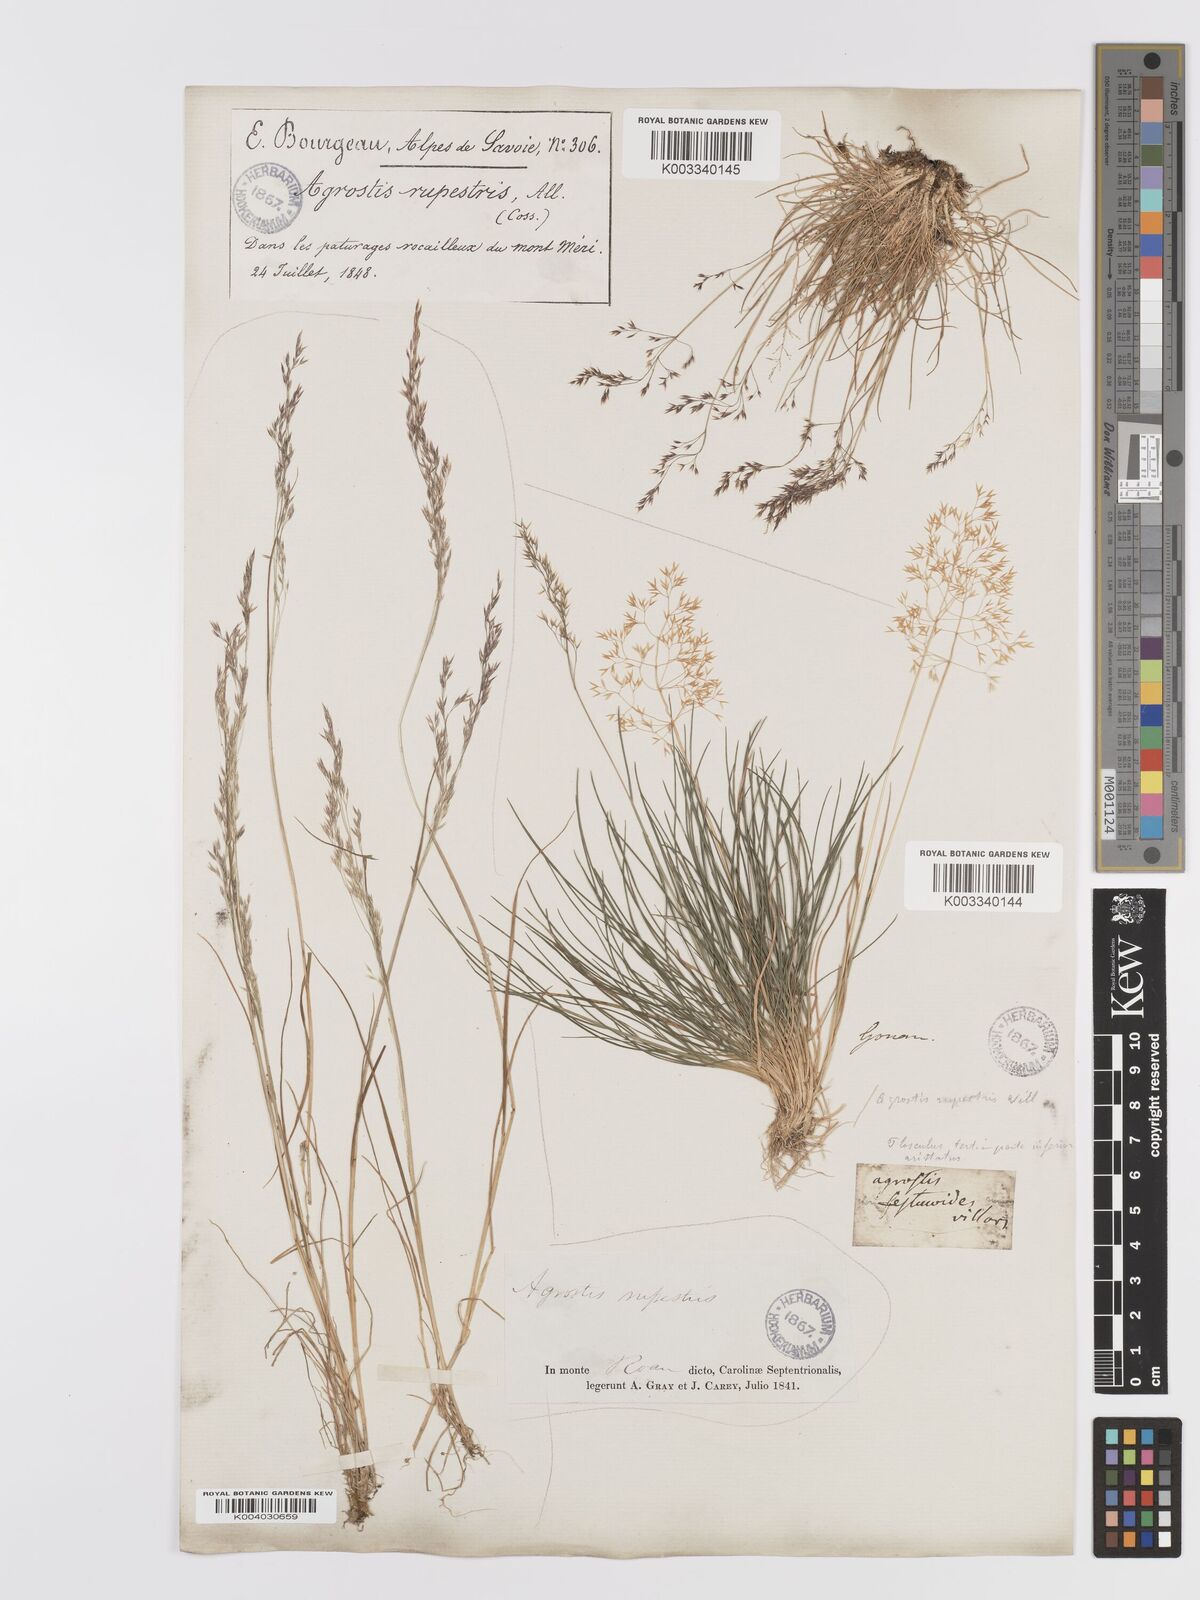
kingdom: Plantae
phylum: Tracheophyta
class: Liliopsida
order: Poales
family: Poaceae
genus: Agrostis
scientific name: Agrostis rupestris
